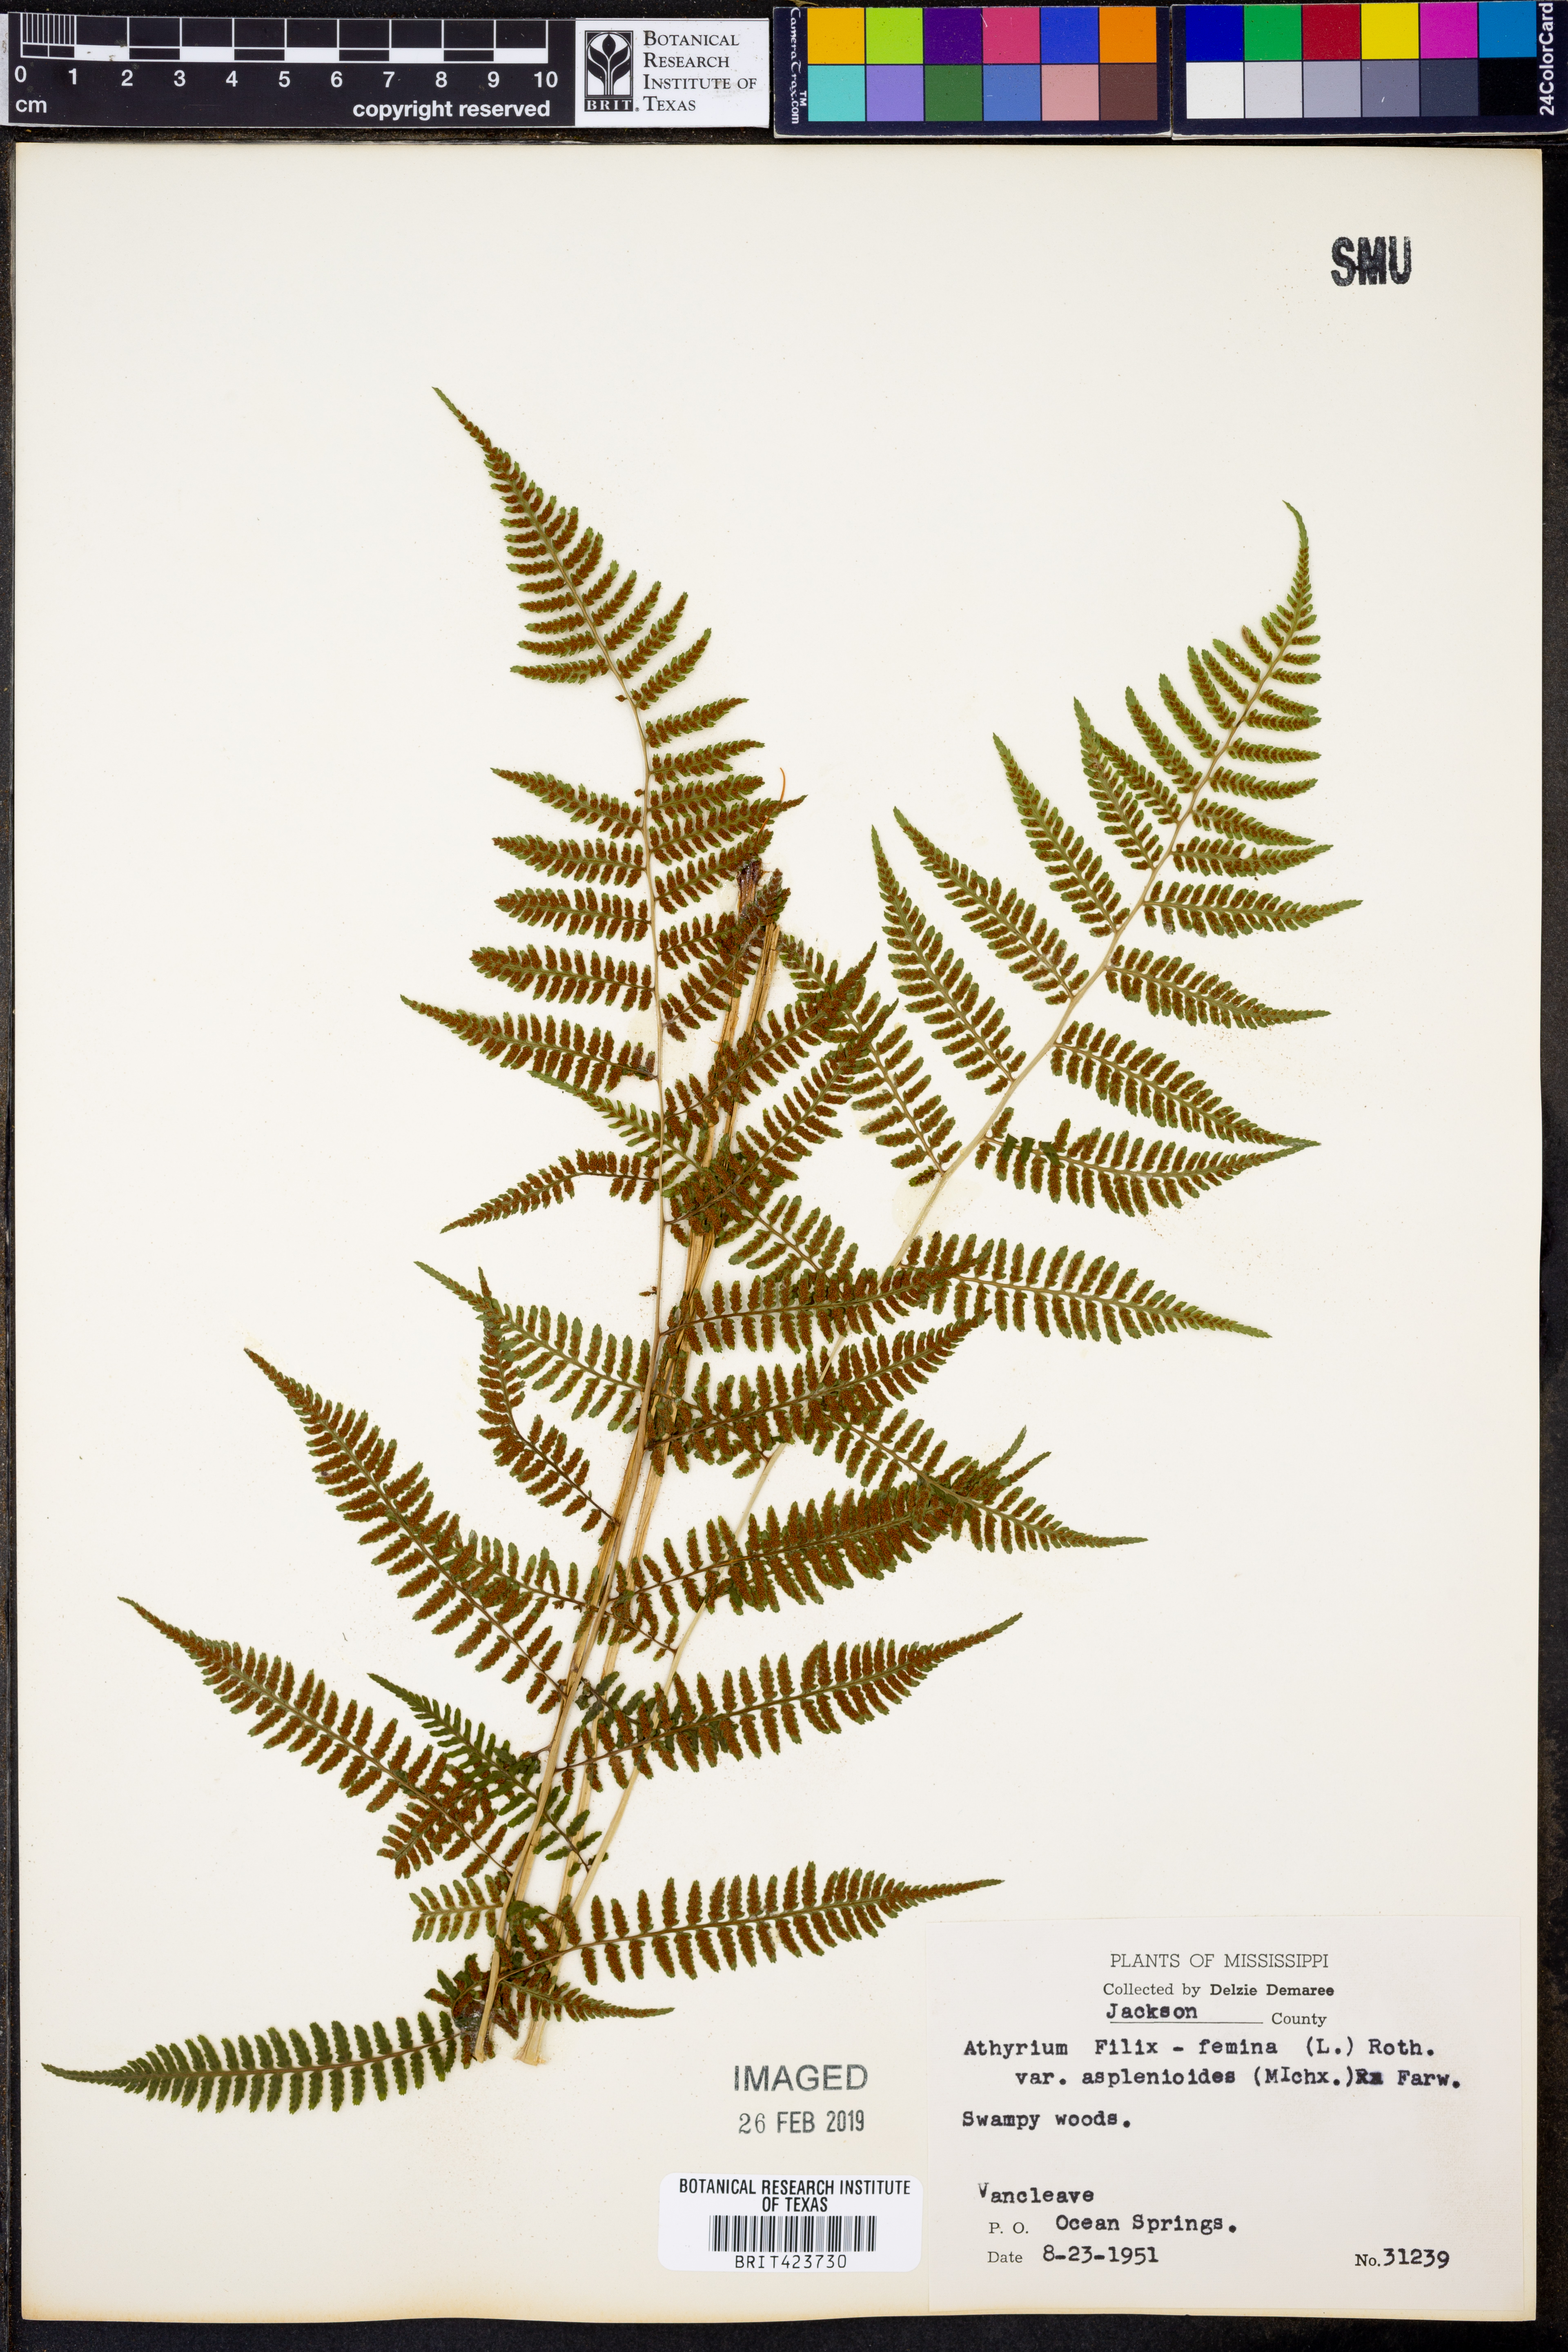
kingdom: Plantae
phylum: Tracheophyta
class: Polypodiopsida
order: Polypodiales
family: Athyriaceae
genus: Athyrium
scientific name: Athyrium asplenioides
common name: Southern lady fern
